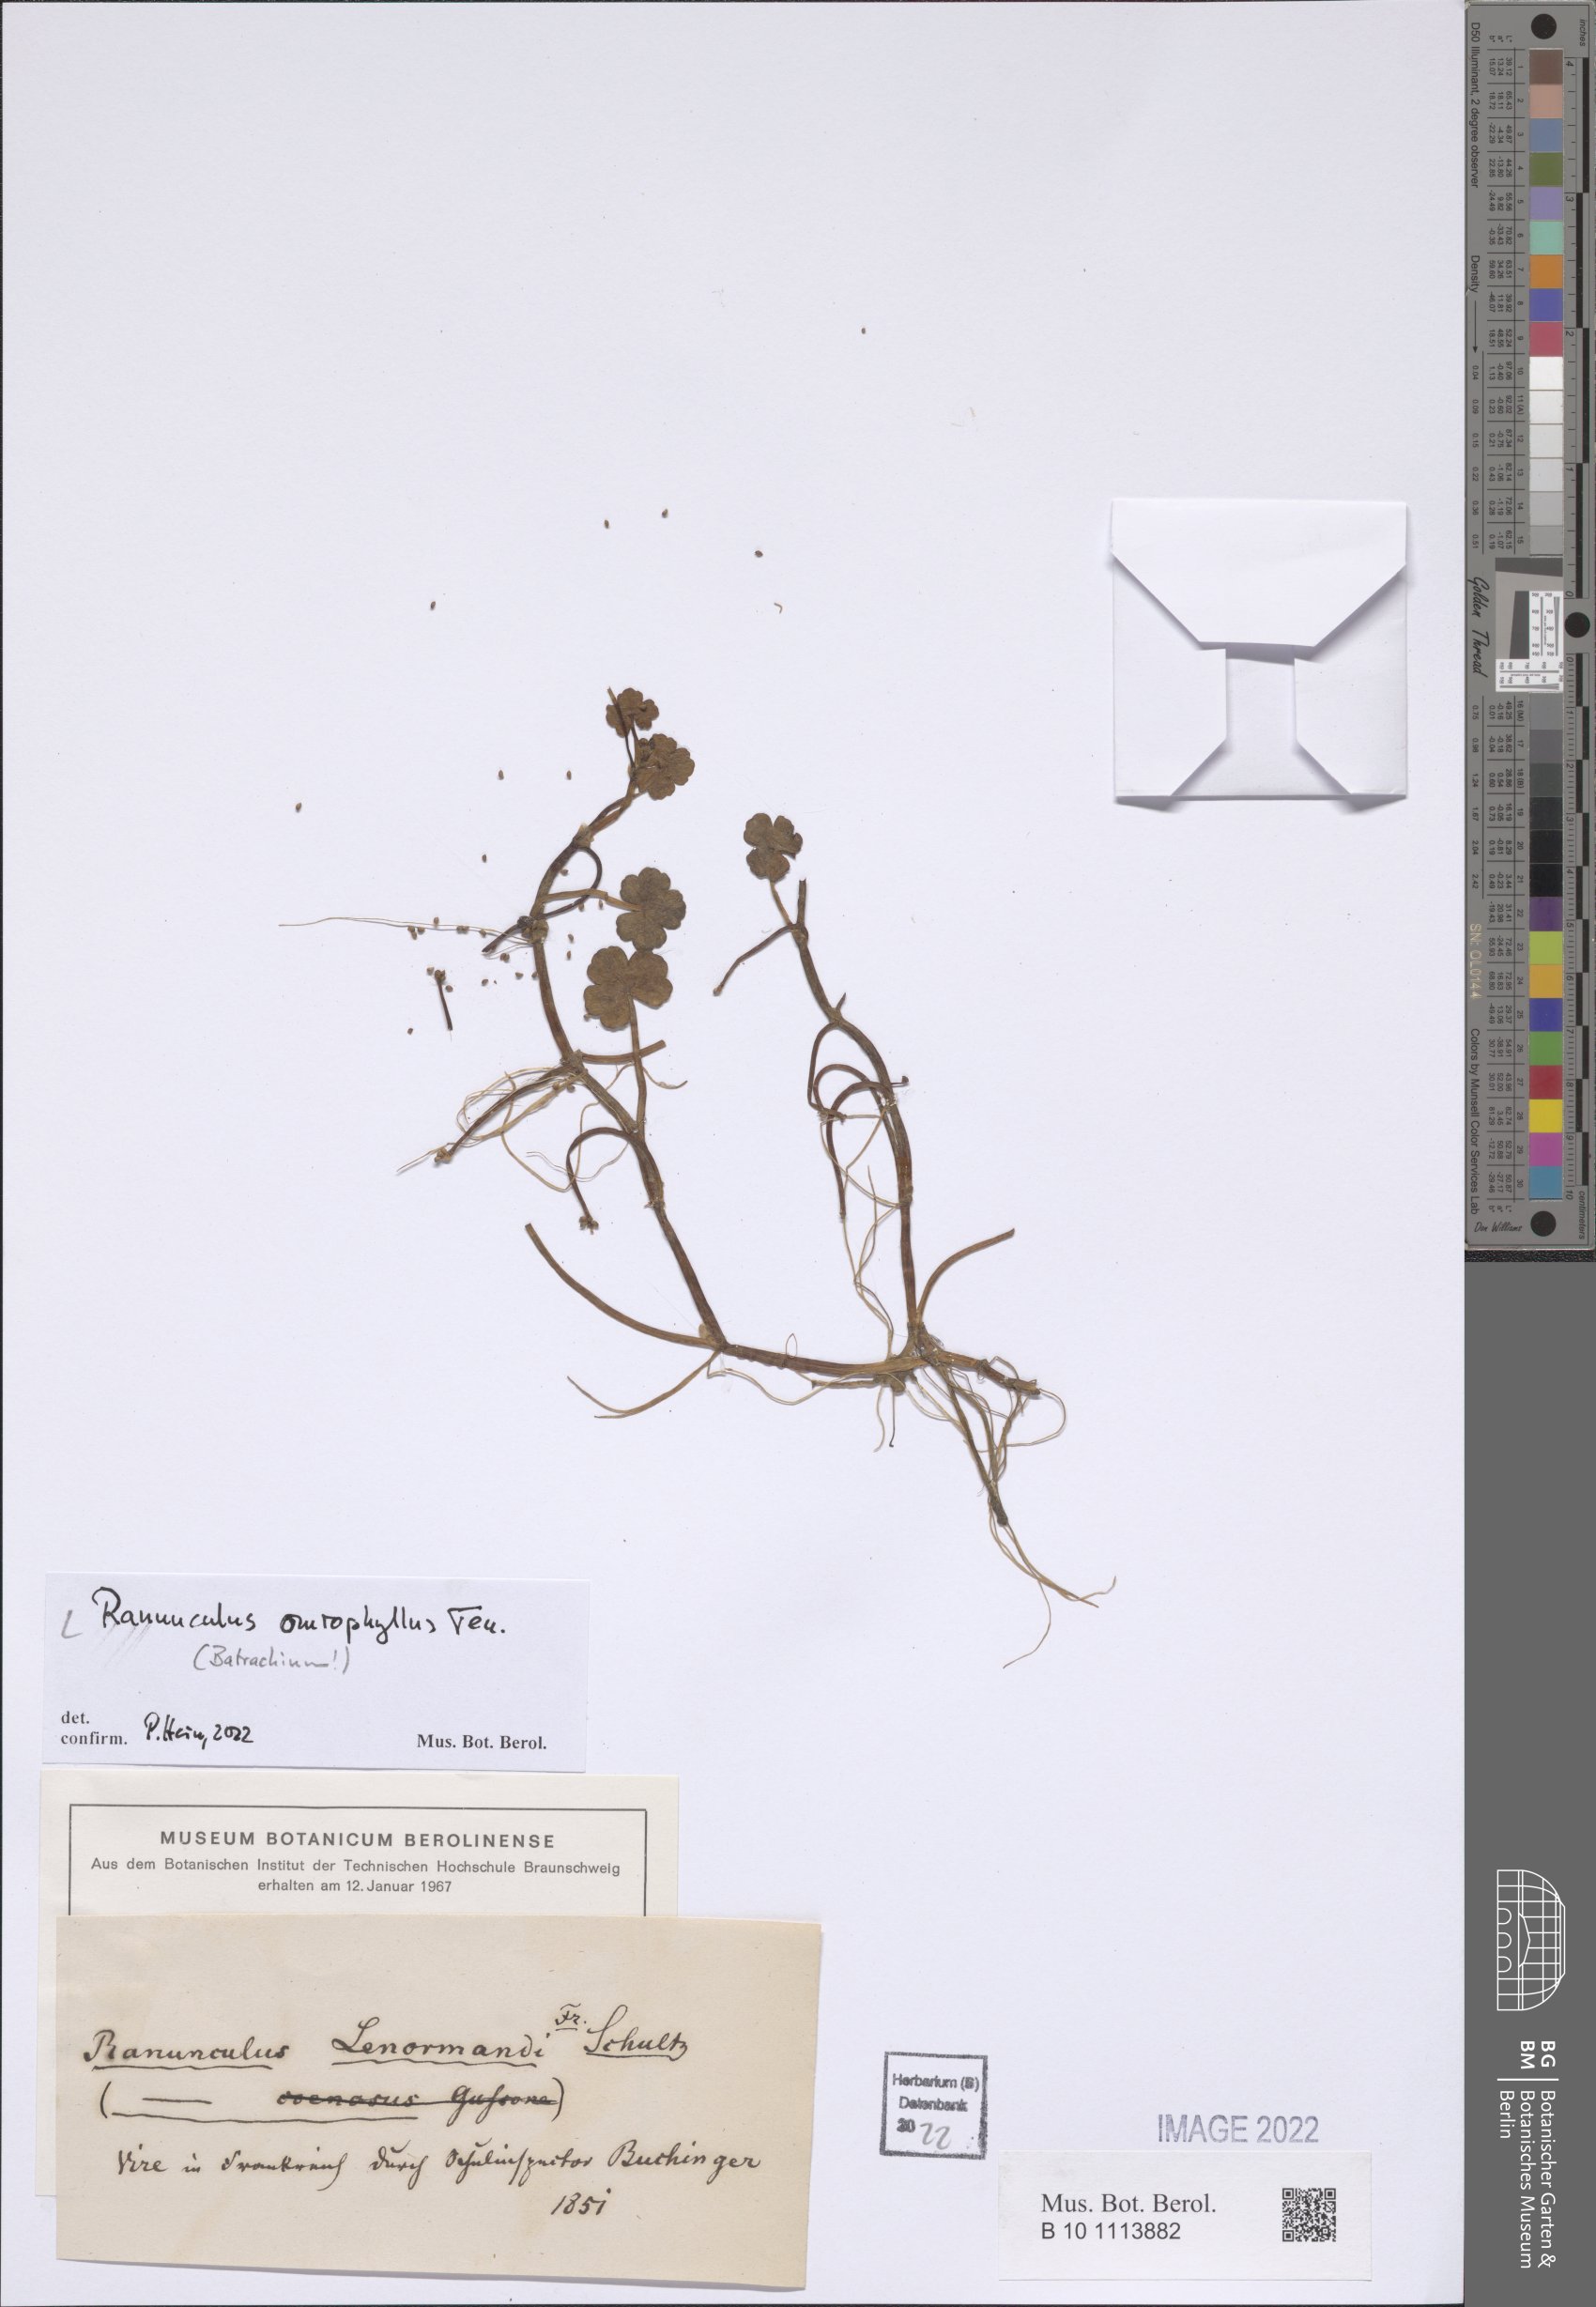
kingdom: Plantae
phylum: Tracheophyta
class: Magnoliopsida
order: Ranunculales
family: Ranunculaceae
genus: Ranunculus
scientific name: Ranunculus omiophyllus
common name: Round-leaved crowfoot
